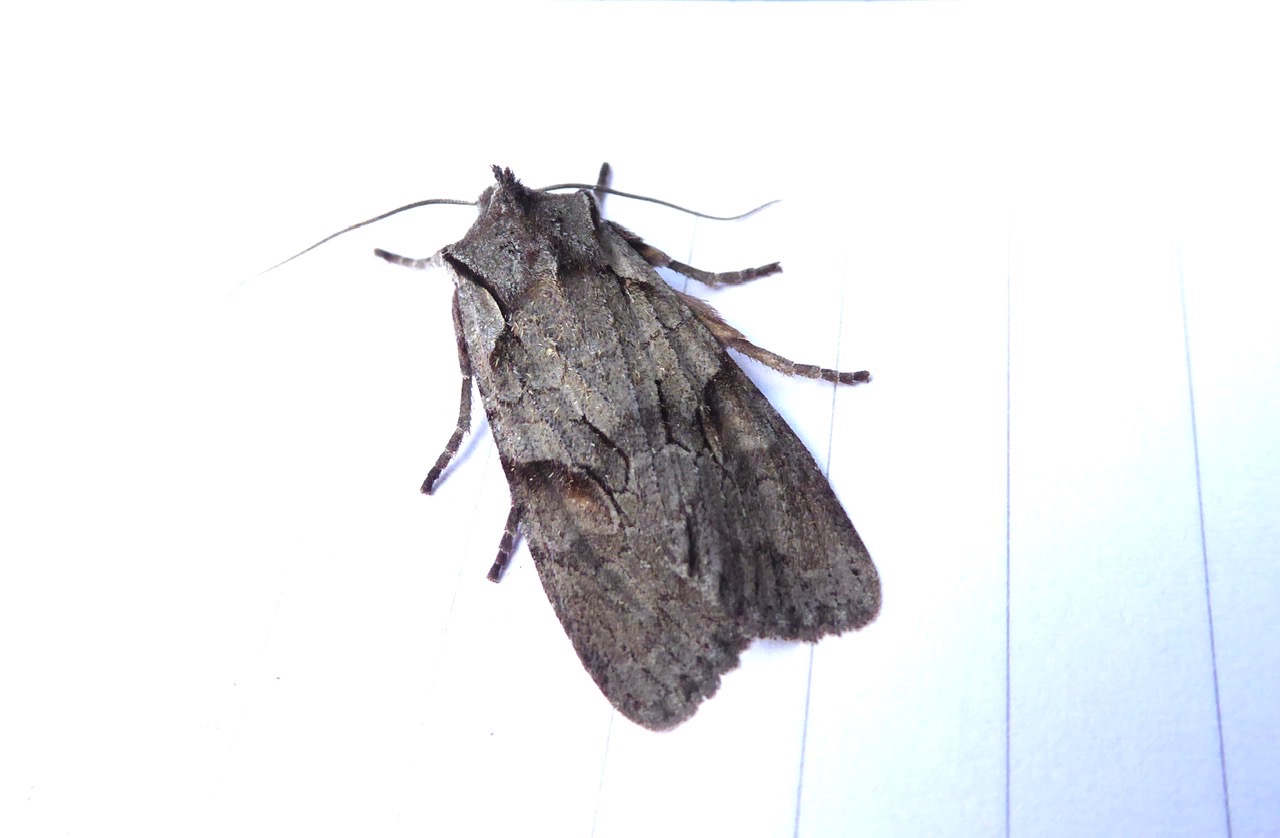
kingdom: Animalia
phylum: Arthropoda
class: Insecta
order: Lepidoptera
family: Noctuidae
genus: Lithophane
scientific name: Lithophane furcifera
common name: Rødelugle
